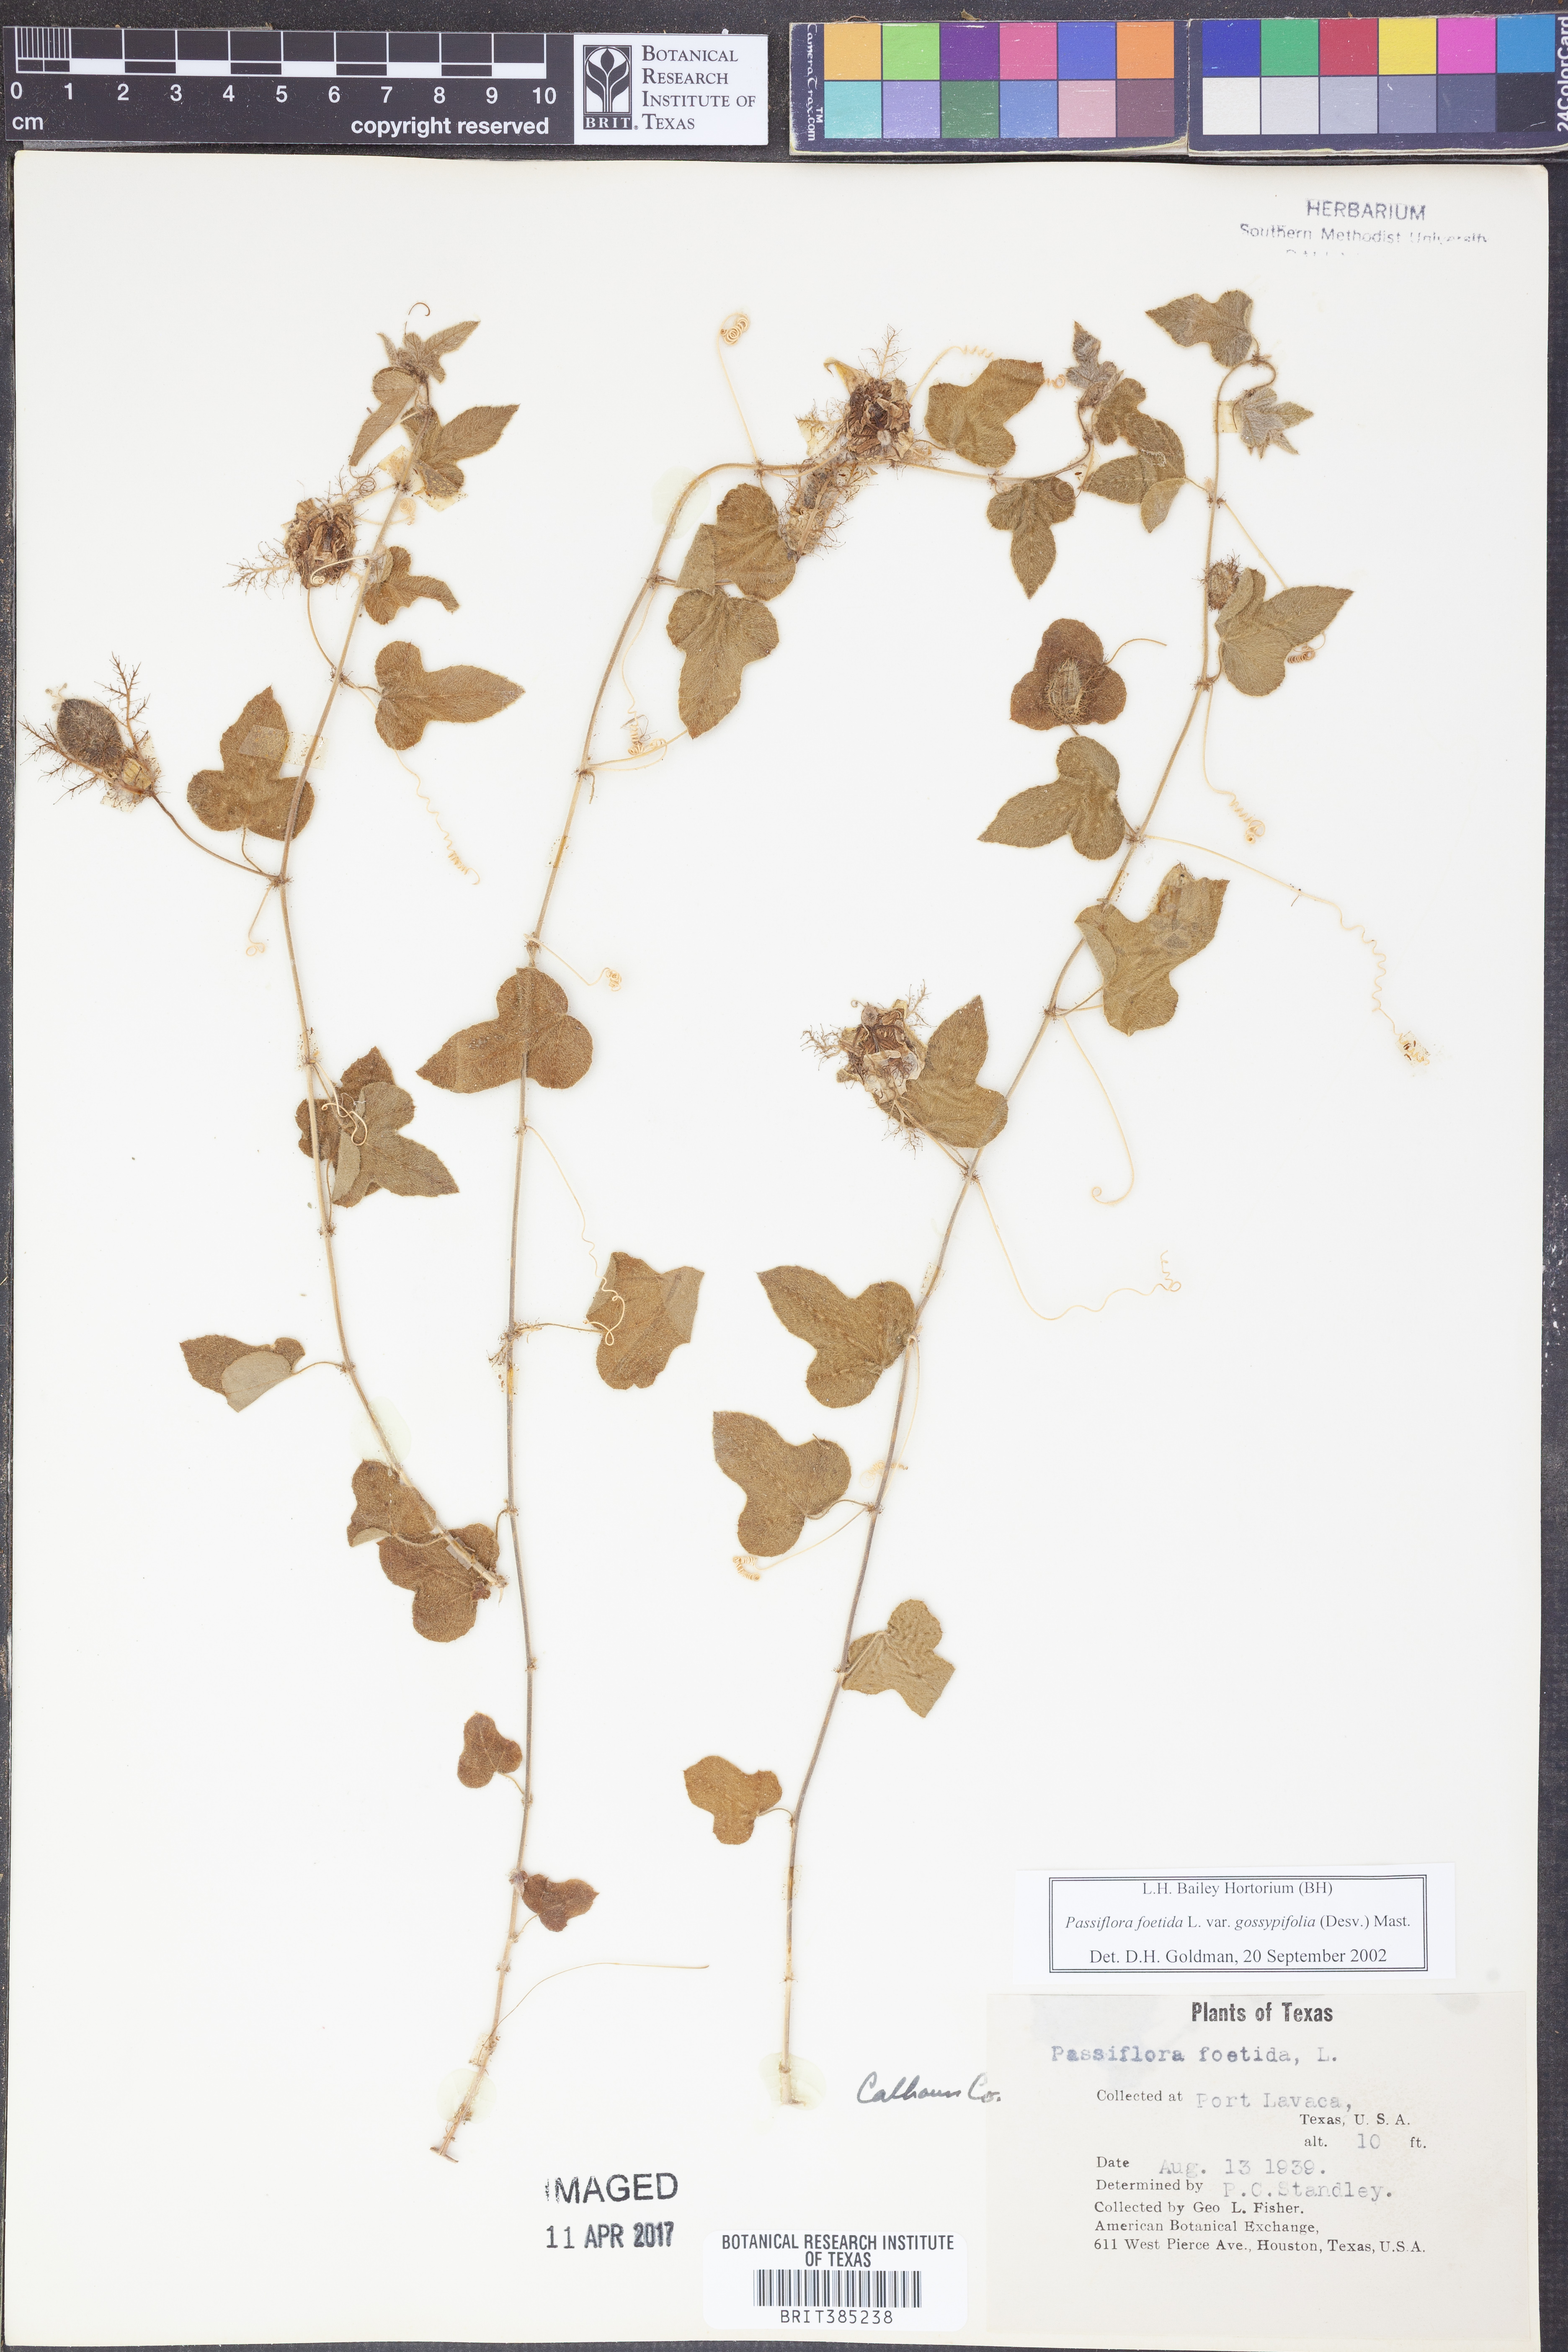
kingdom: Plantae
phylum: Tracheophyta
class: Magnoliopsida
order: Malpighiales
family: Passifloraceae
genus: Passiflora
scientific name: Passiflora foetida
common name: Fetid passionflower
